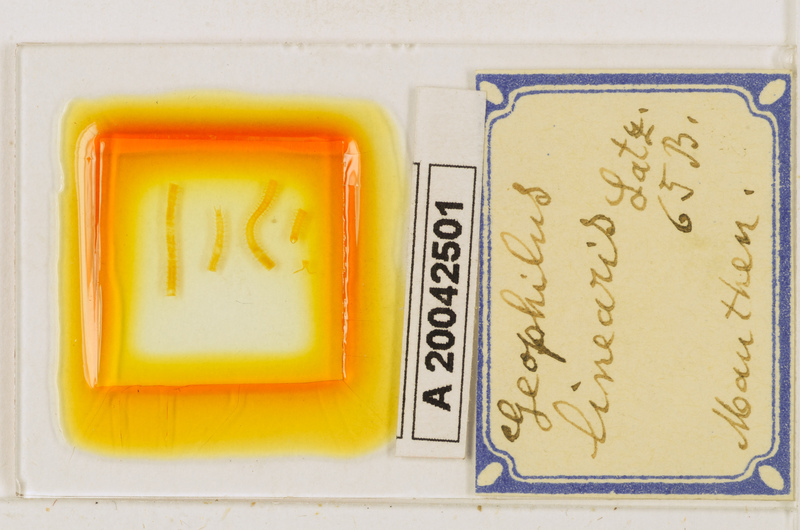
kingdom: Animalia
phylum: Arthropoda
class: Chilopoda
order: Geophilomorpha
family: Geophilidae
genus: Stenotaenia
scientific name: Stenotaenia linearis
